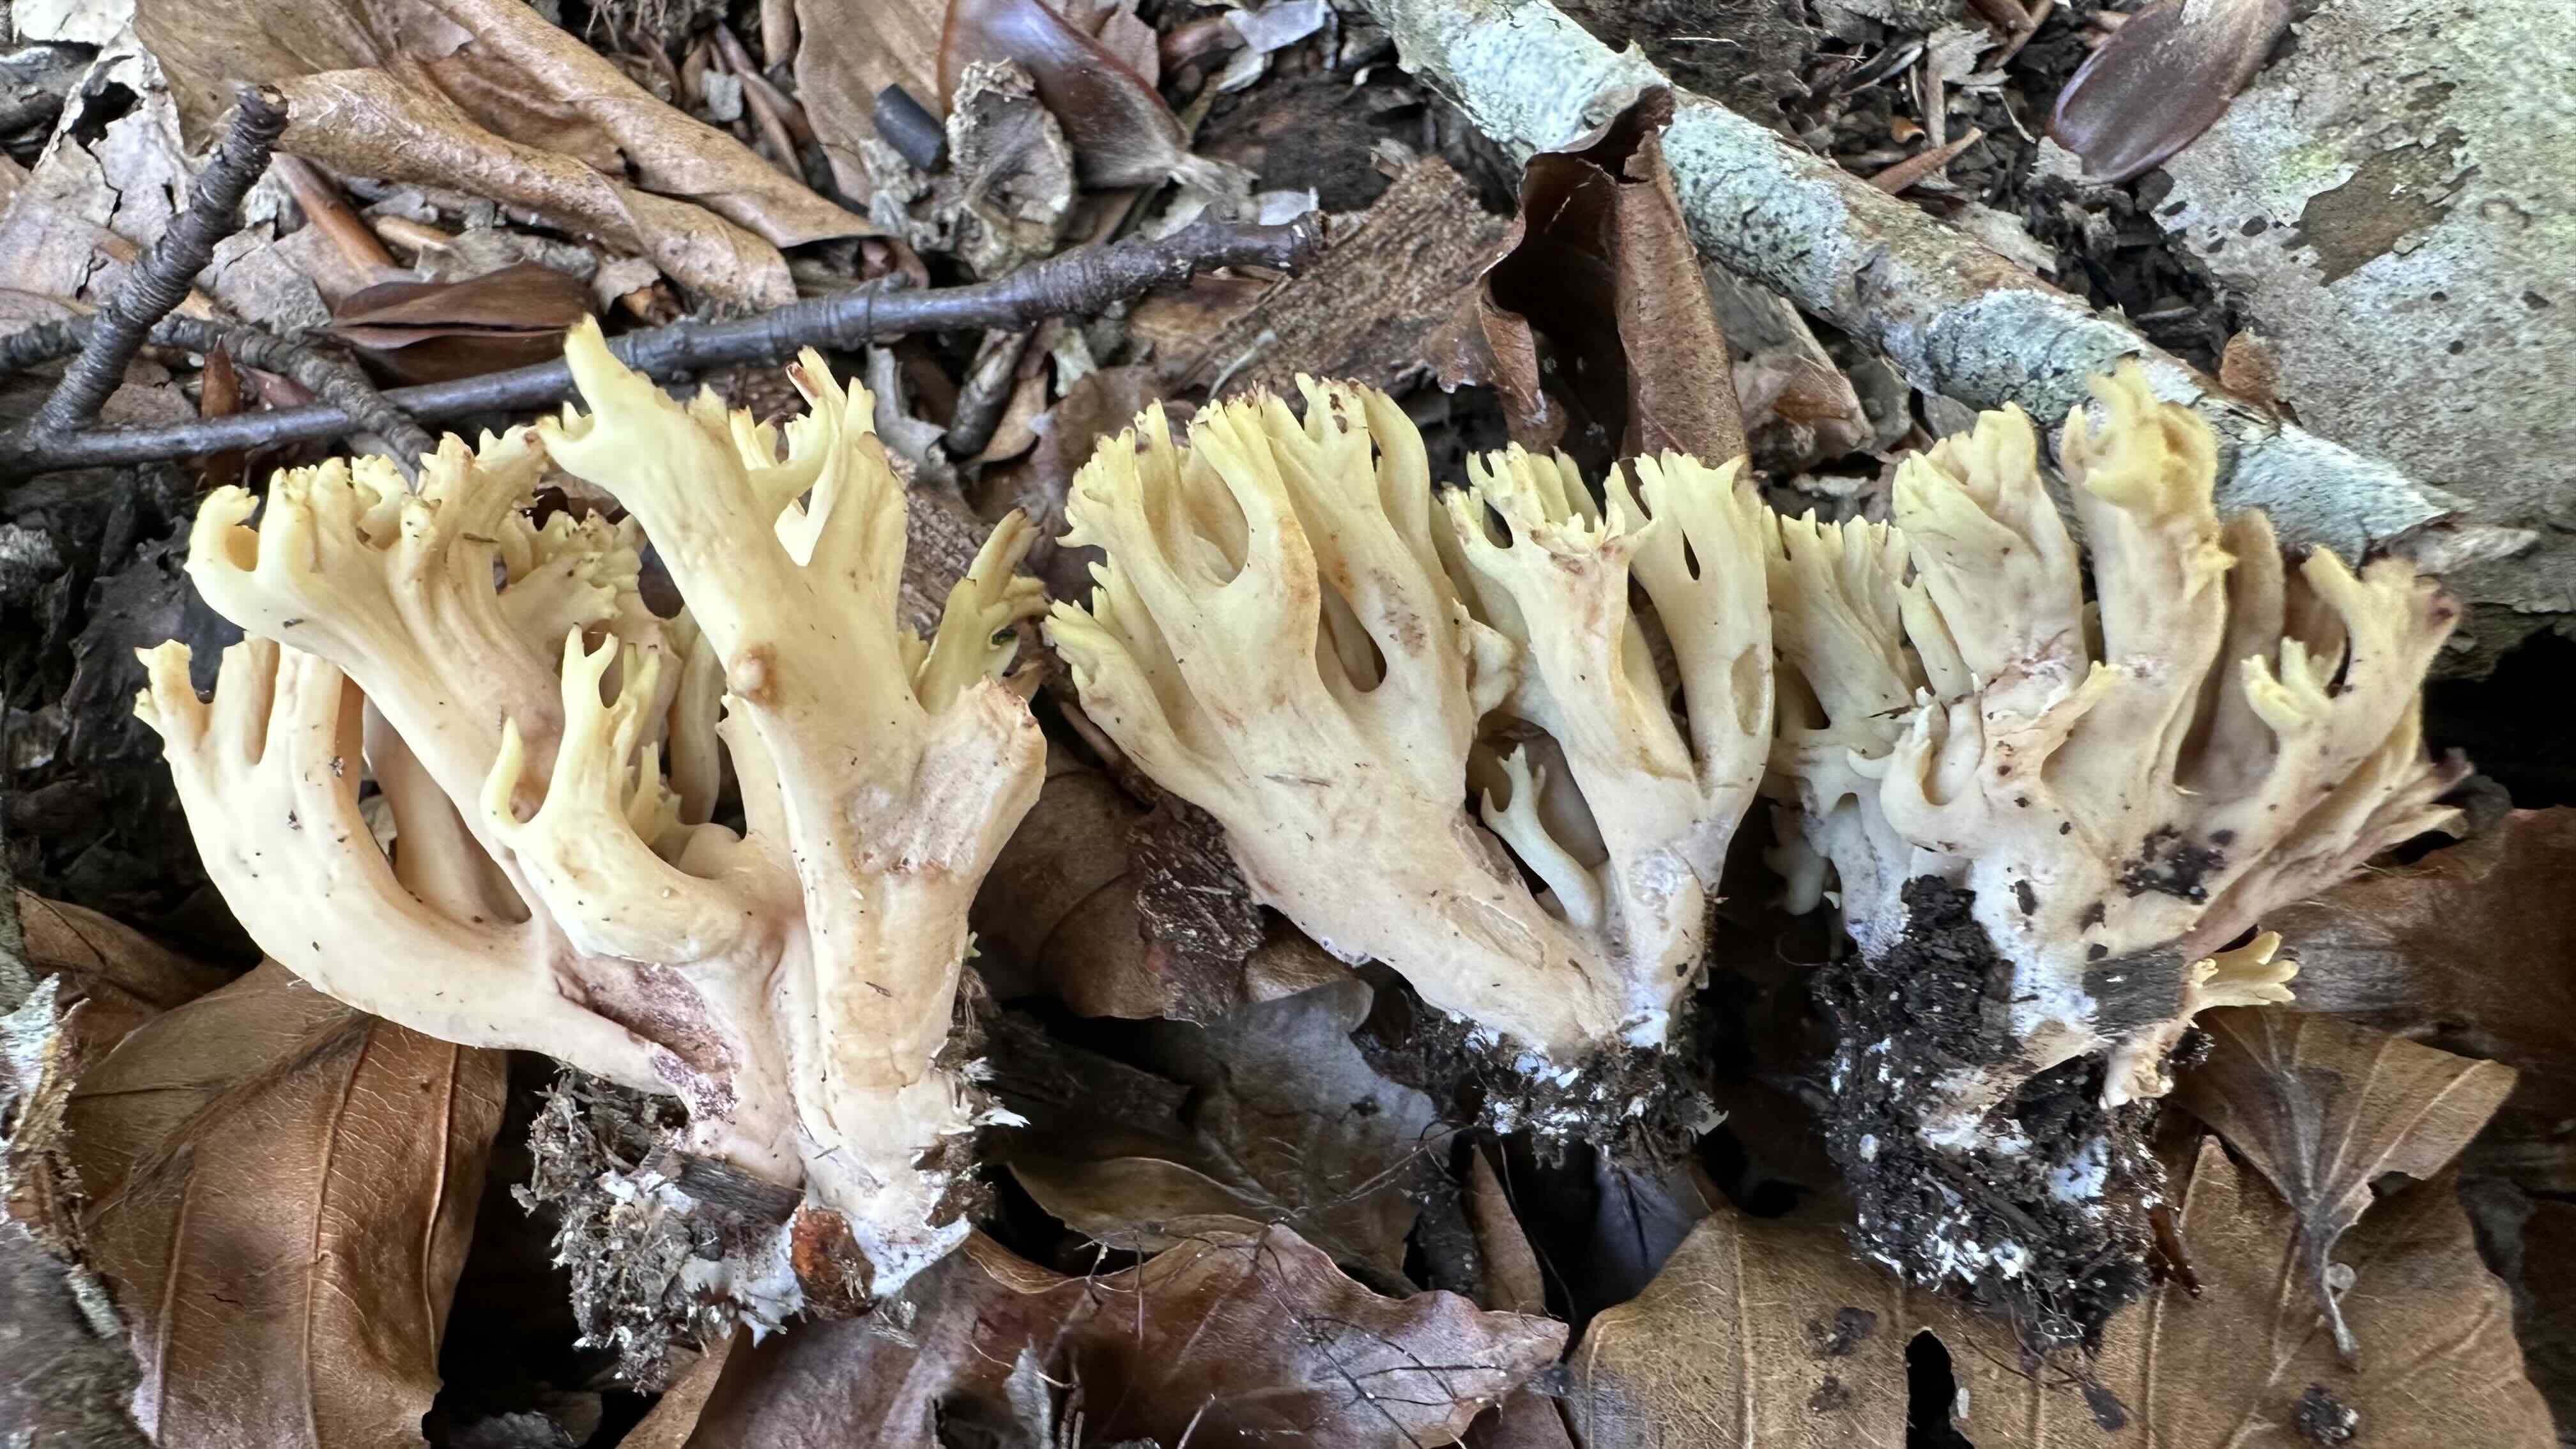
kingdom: Fungi
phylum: Basidiomycota
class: Agaricomycetes
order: Gomphales
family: Gomphaceae
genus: Ramaria
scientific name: Ramaria stricta
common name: rank koralsvamp
